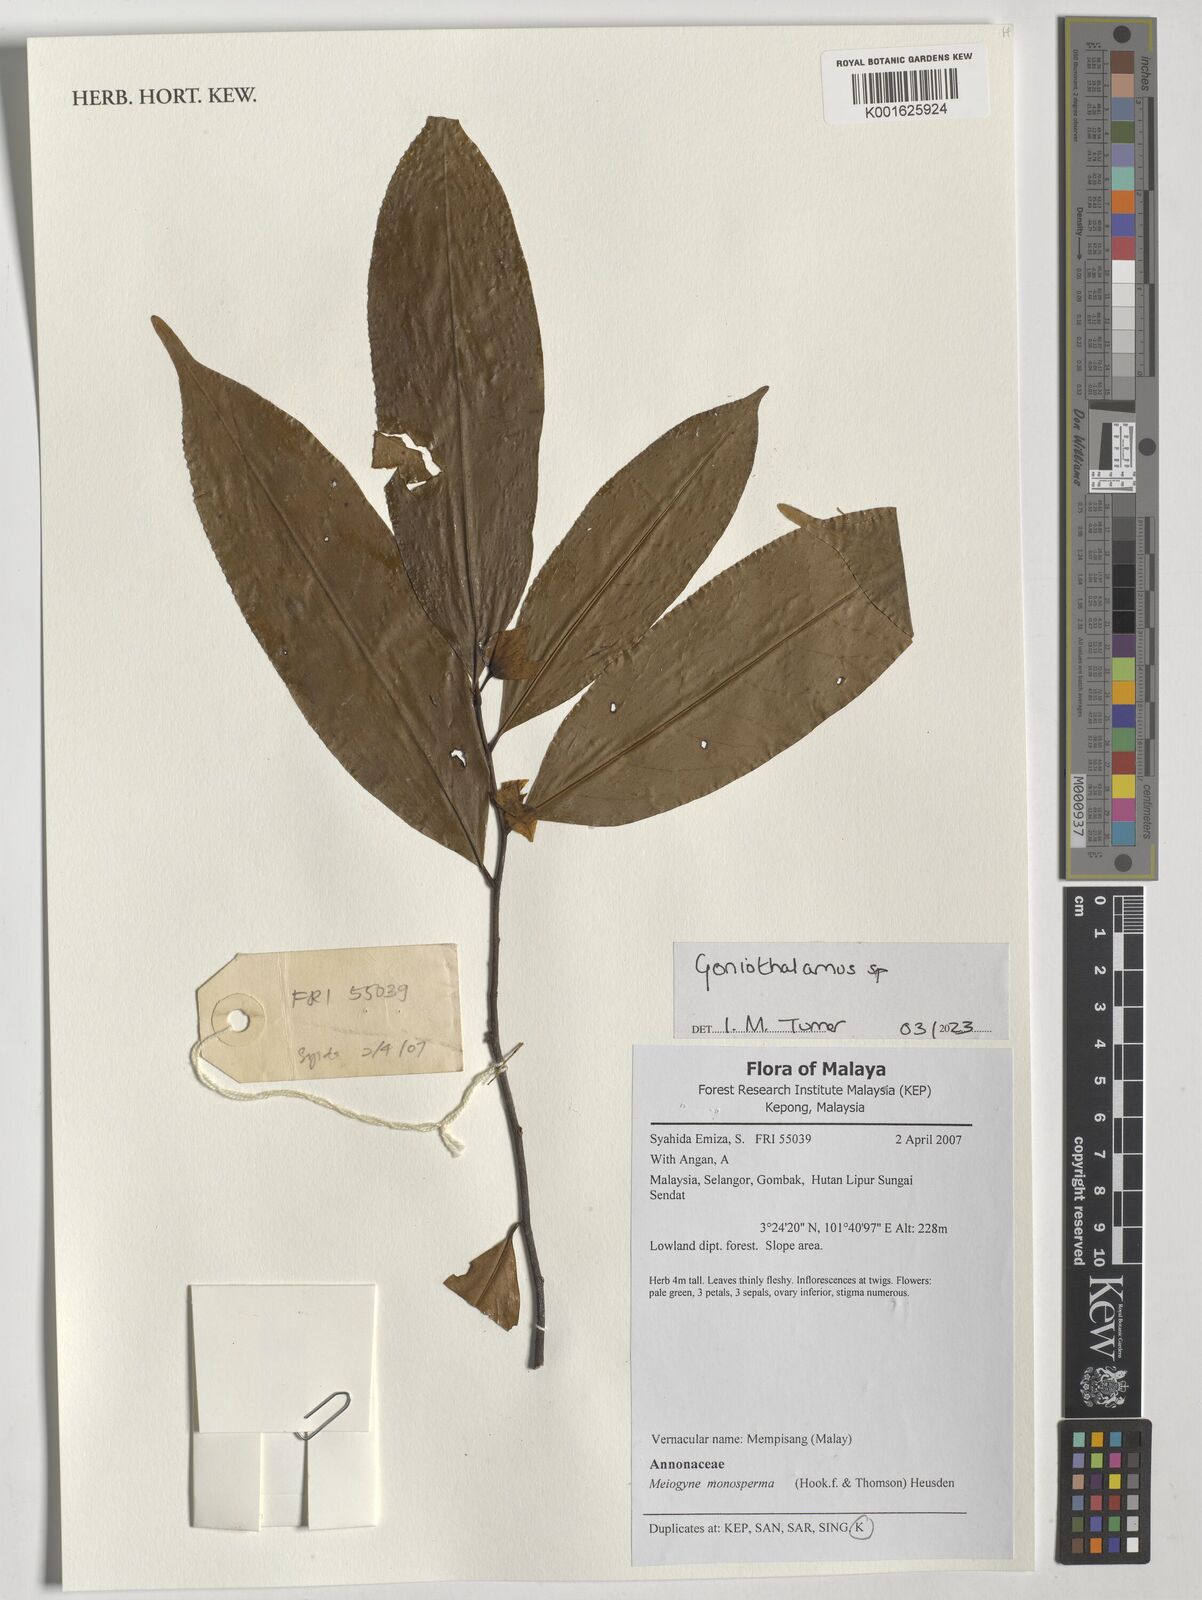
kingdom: Plantae
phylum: Tracheophyta
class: Magnoliopsida
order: Magnoliales
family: Annonaceae
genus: Meiogyne
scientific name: Meiogyne monosperma
